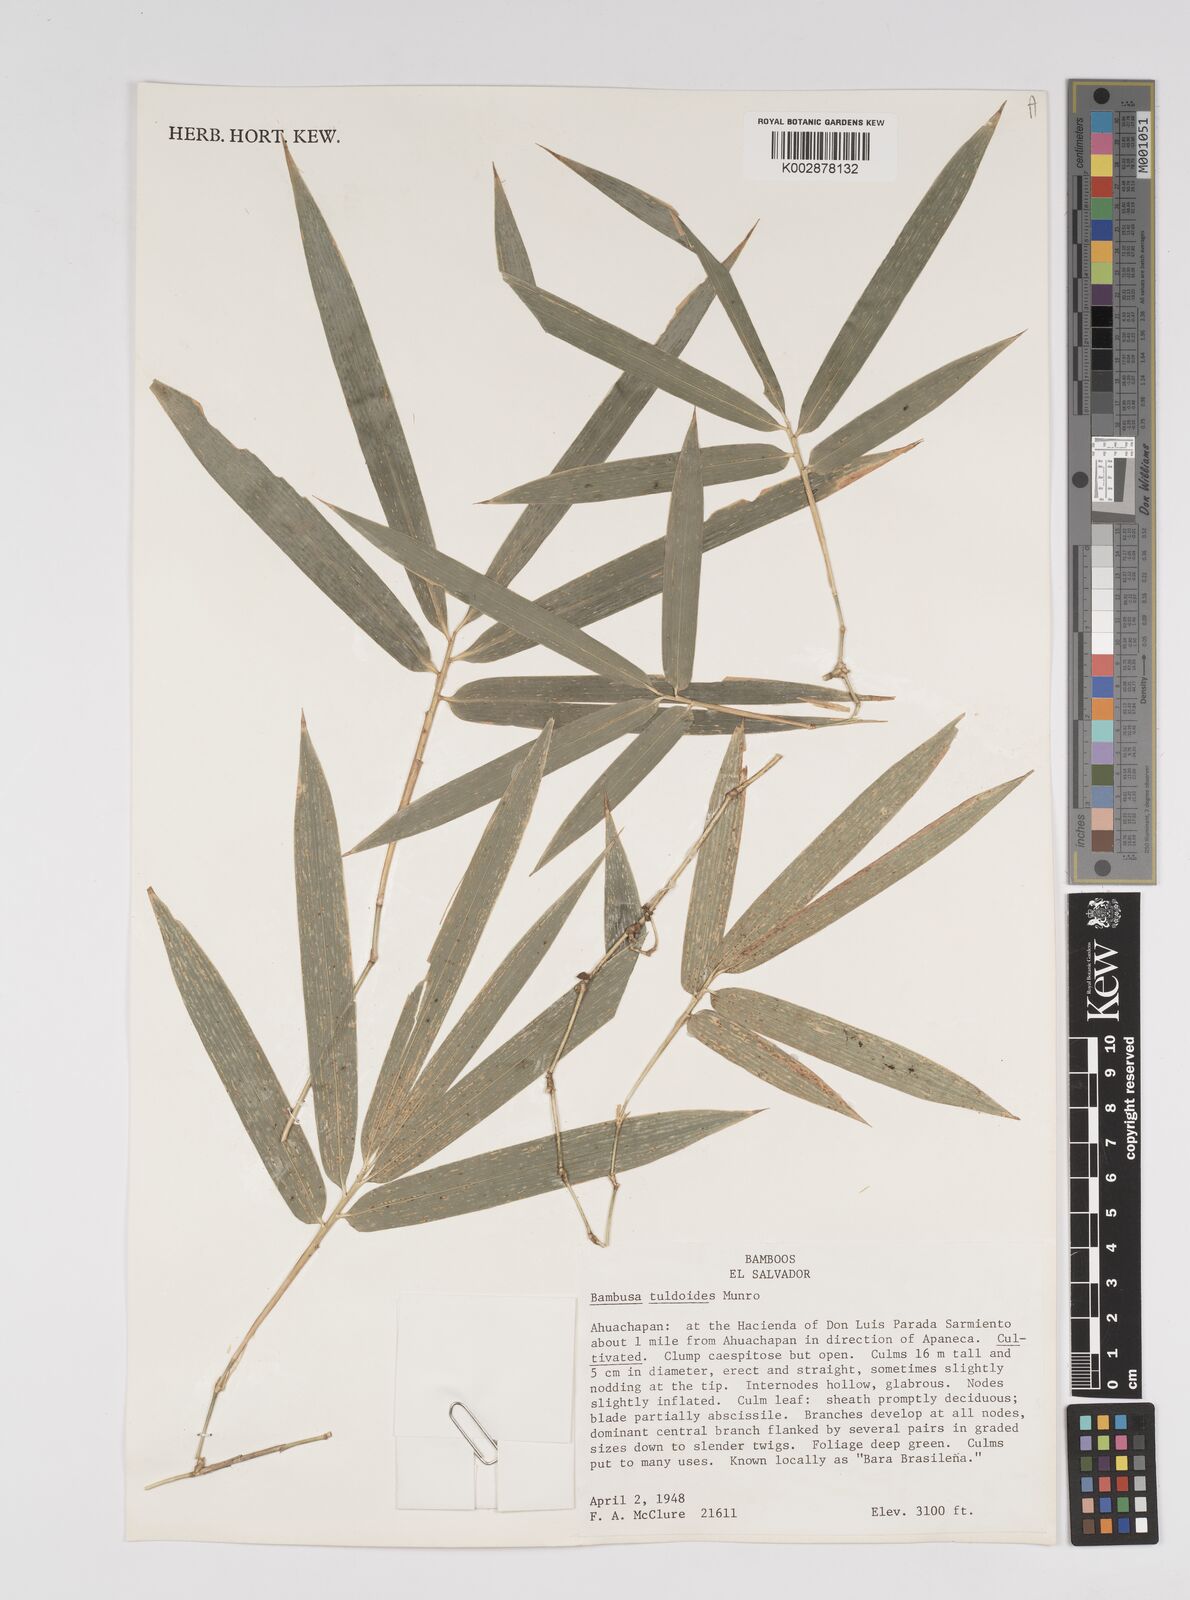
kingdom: Plantae
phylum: Tracheophyta
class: Liliopsida
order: Poales
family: Poaceae
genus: Bambusa
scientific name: Bambusa tuldoides
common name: Verdant bamboo
